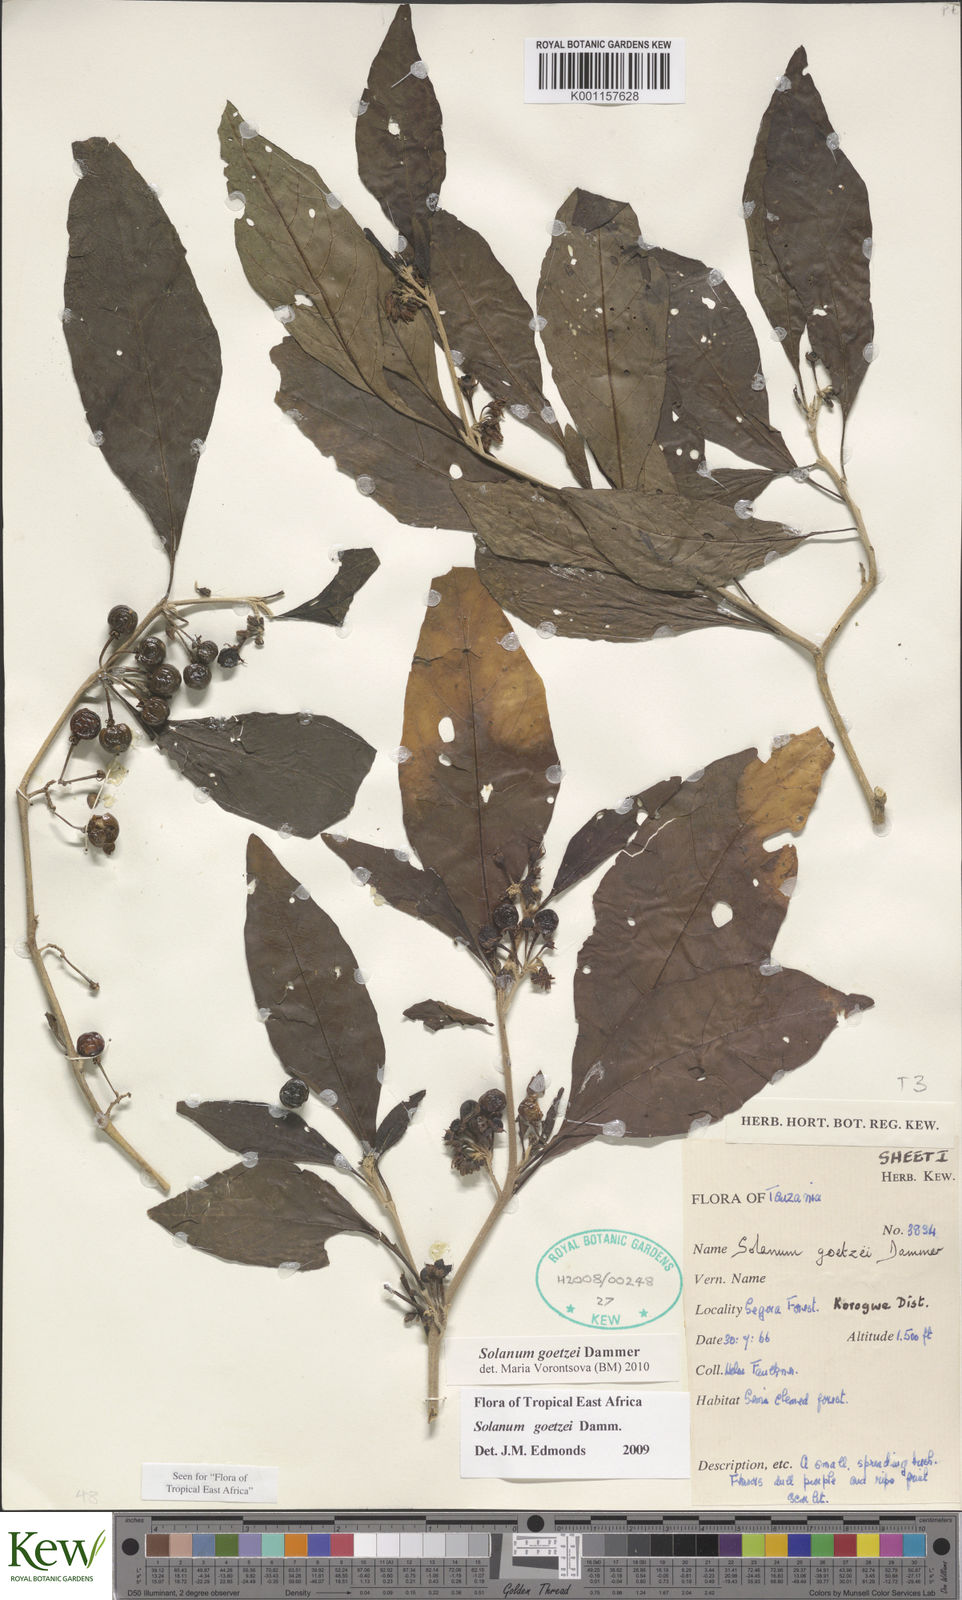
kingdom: Plantae
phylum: Tracheophyta
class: Magnoliopsida
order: Solanales
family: Solanaceae
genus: Solanum
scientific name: Solanum goetzei
